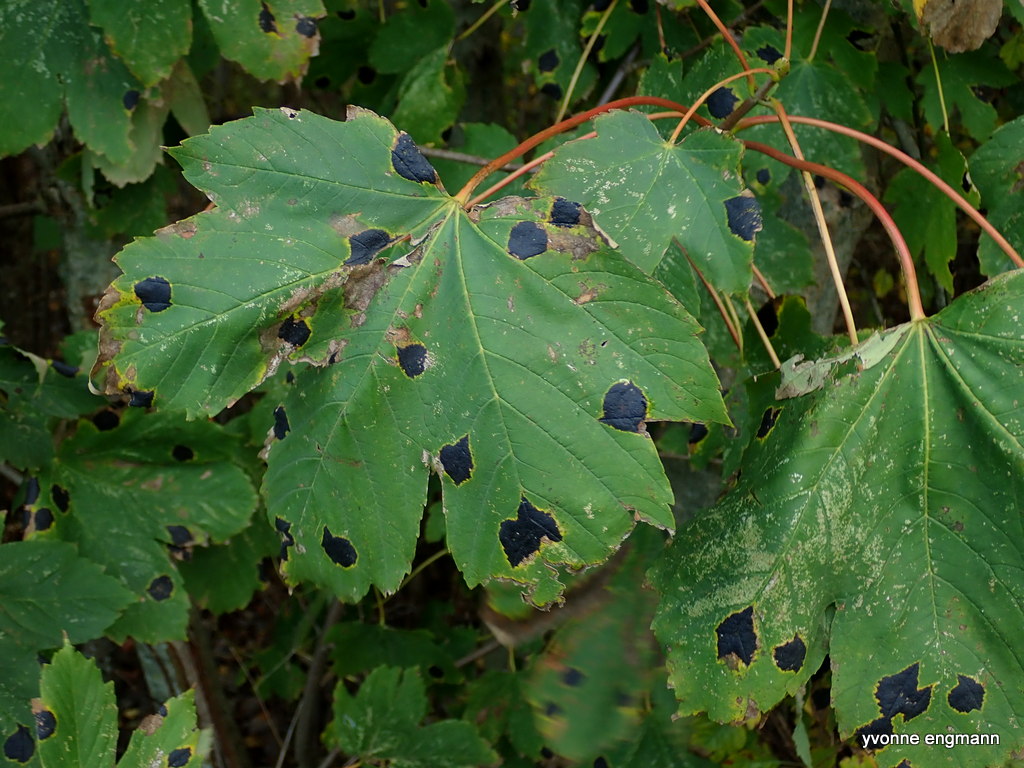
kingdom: Fungi
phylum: Ascomycota
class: Leotiomycetes
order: Rhytismatales
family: Rhytismataceae
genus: Rhytisma
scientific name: Rhytisma acerinum
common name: ahorn-rynkeplet
